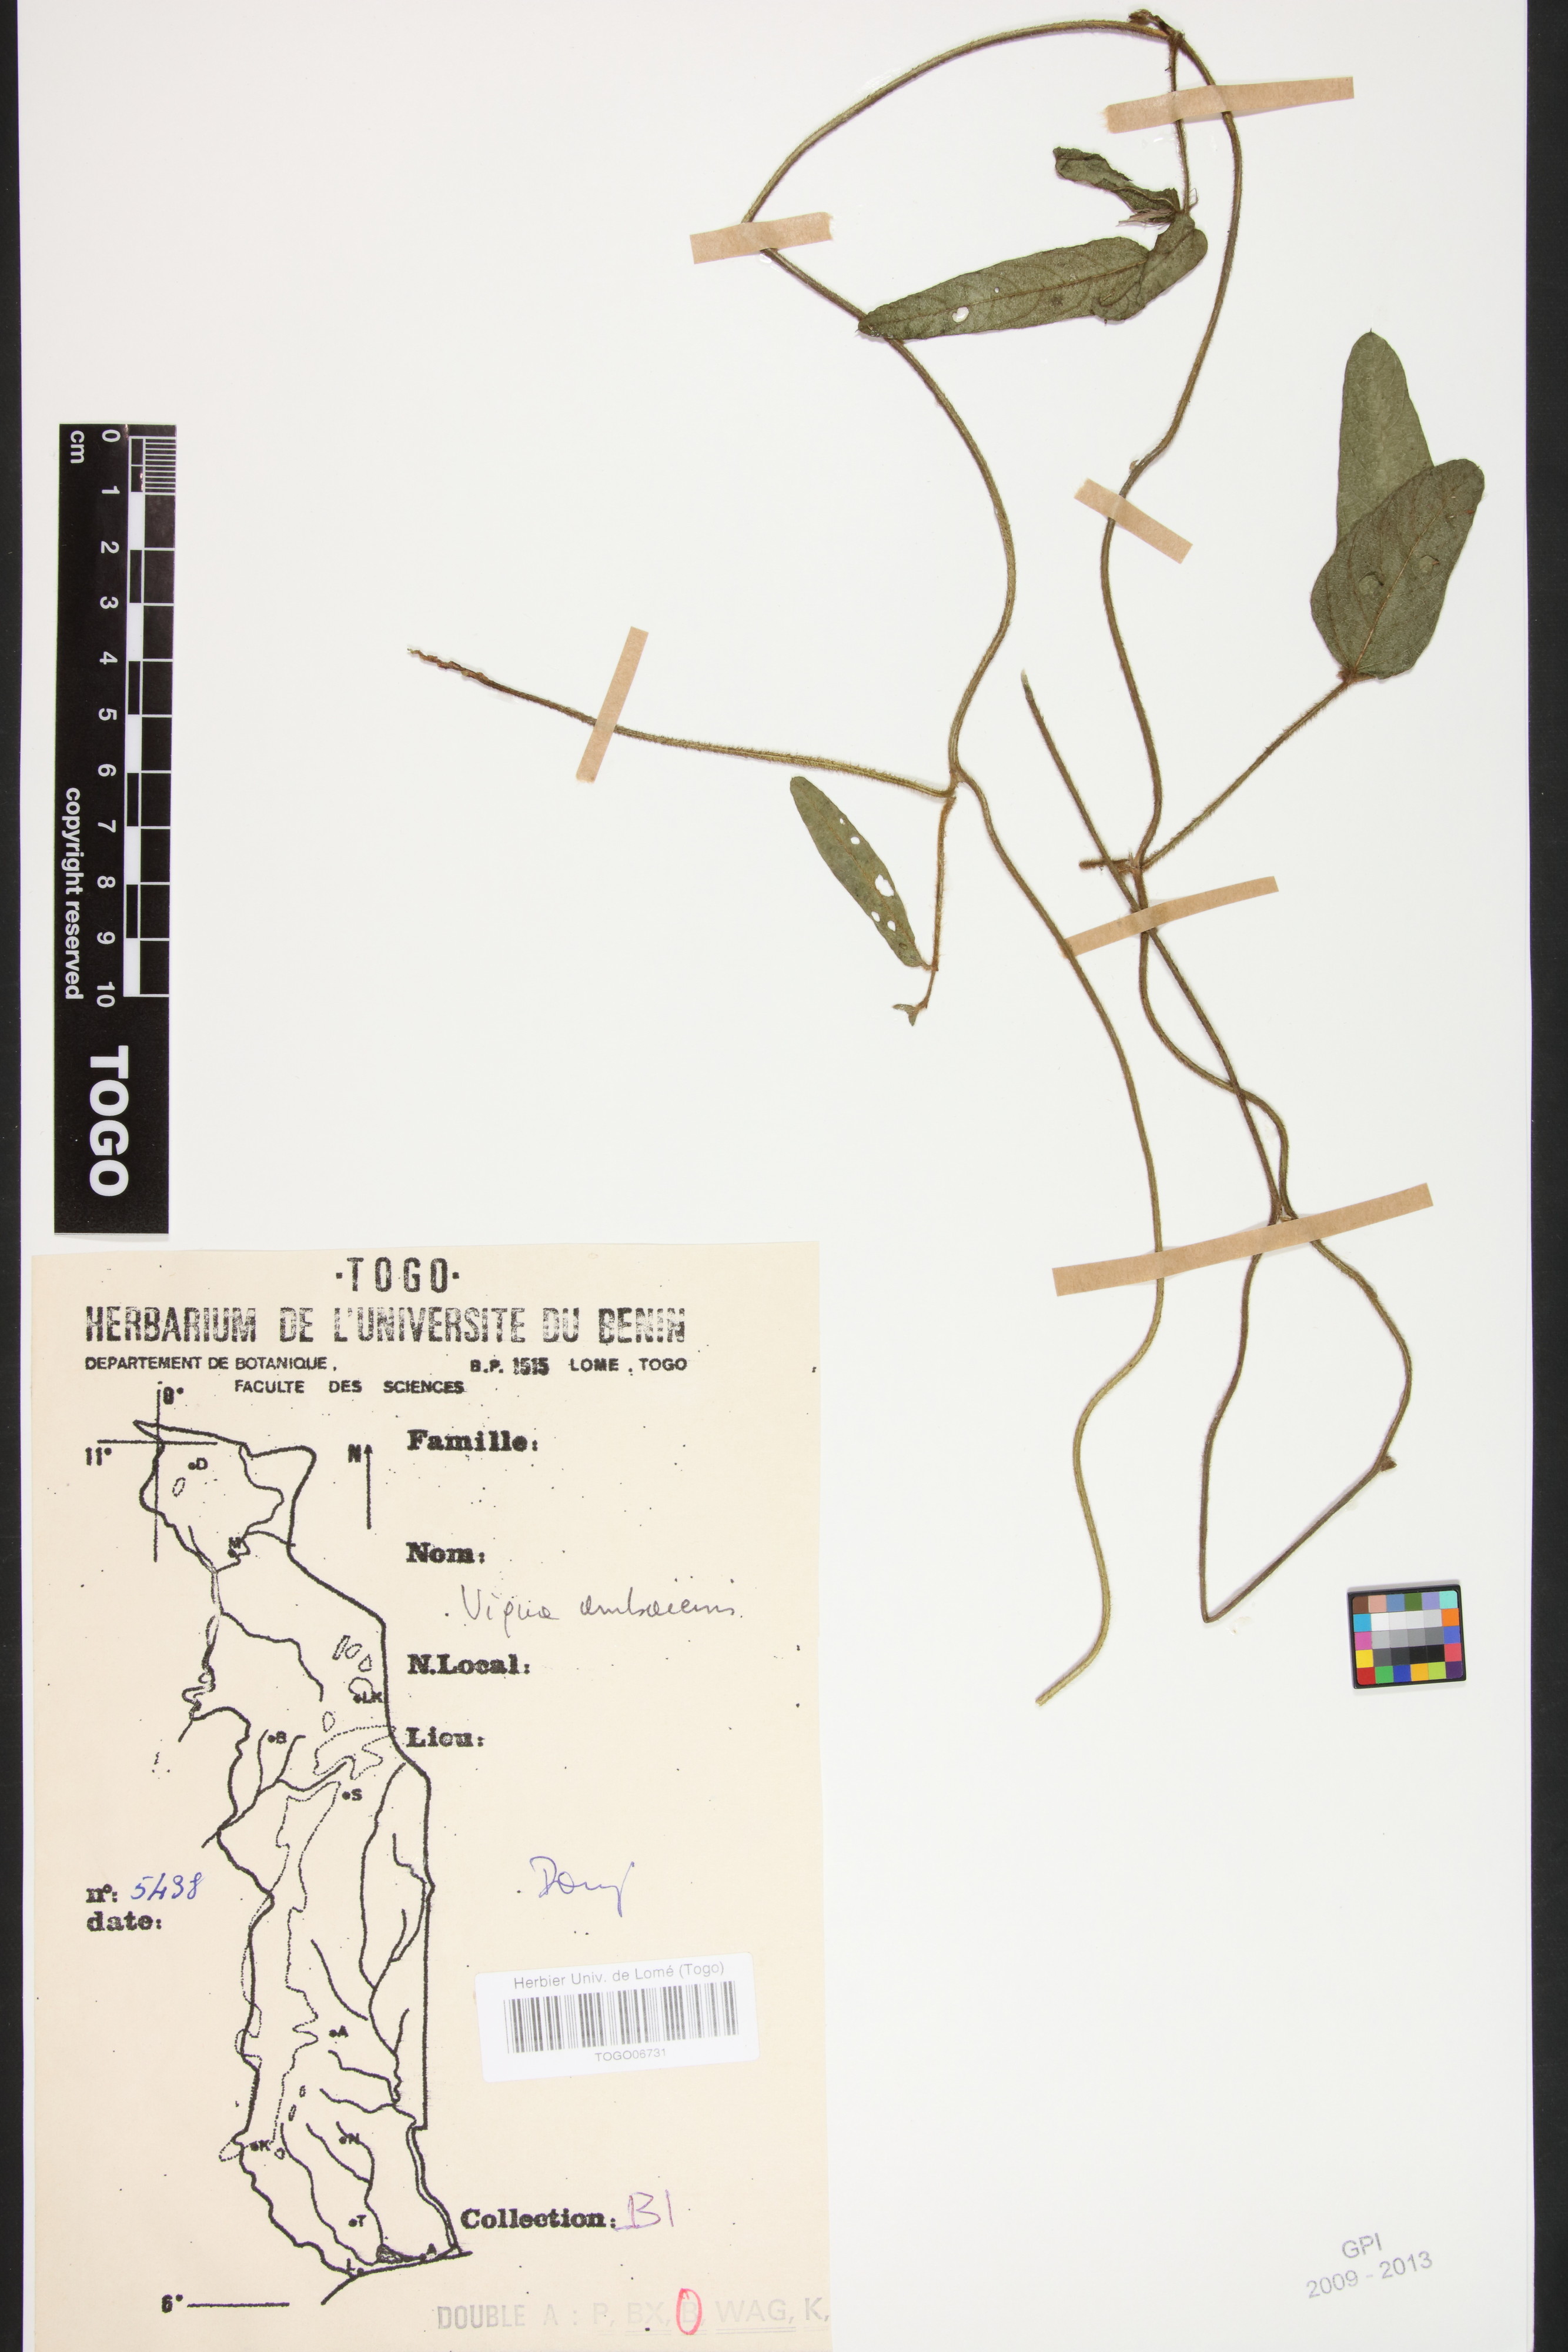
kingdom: Plantae
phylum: Tracheophyta
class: Magnoliopsida
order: Fabales
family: Fabaceae
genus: Vigna
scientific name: Vigna ambacensis
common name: Tsarkiyan zomo
